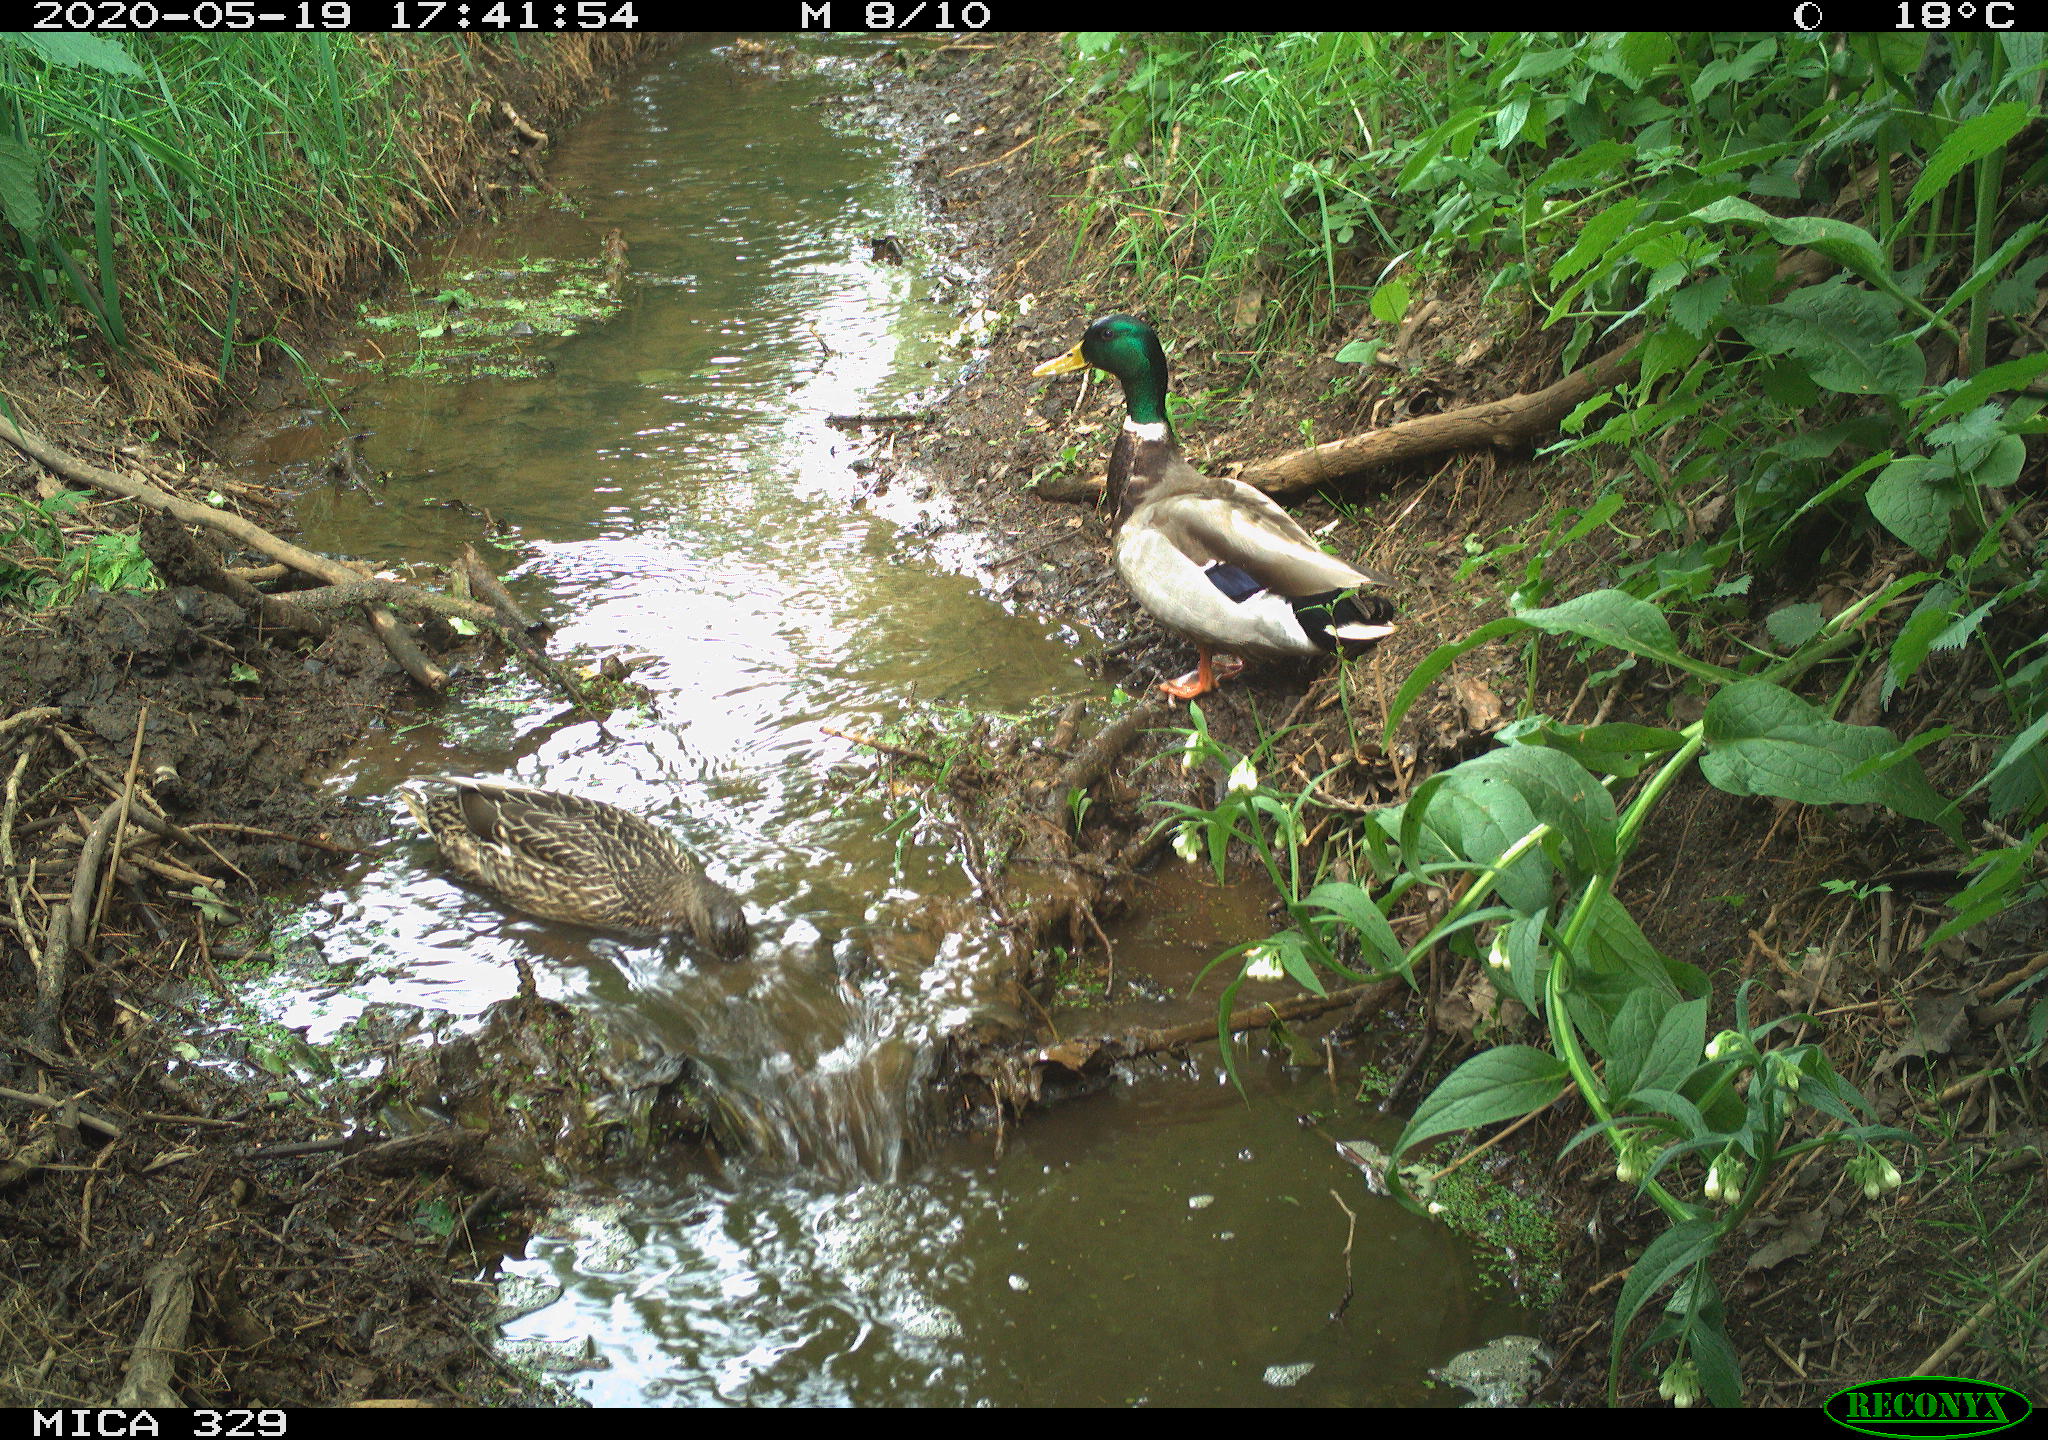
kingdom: Animalia
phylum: Chordata
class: Aves
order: Anseriformes
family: Anatidae
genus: Anas
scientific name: Anas platyrhynchos
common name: Mallard
